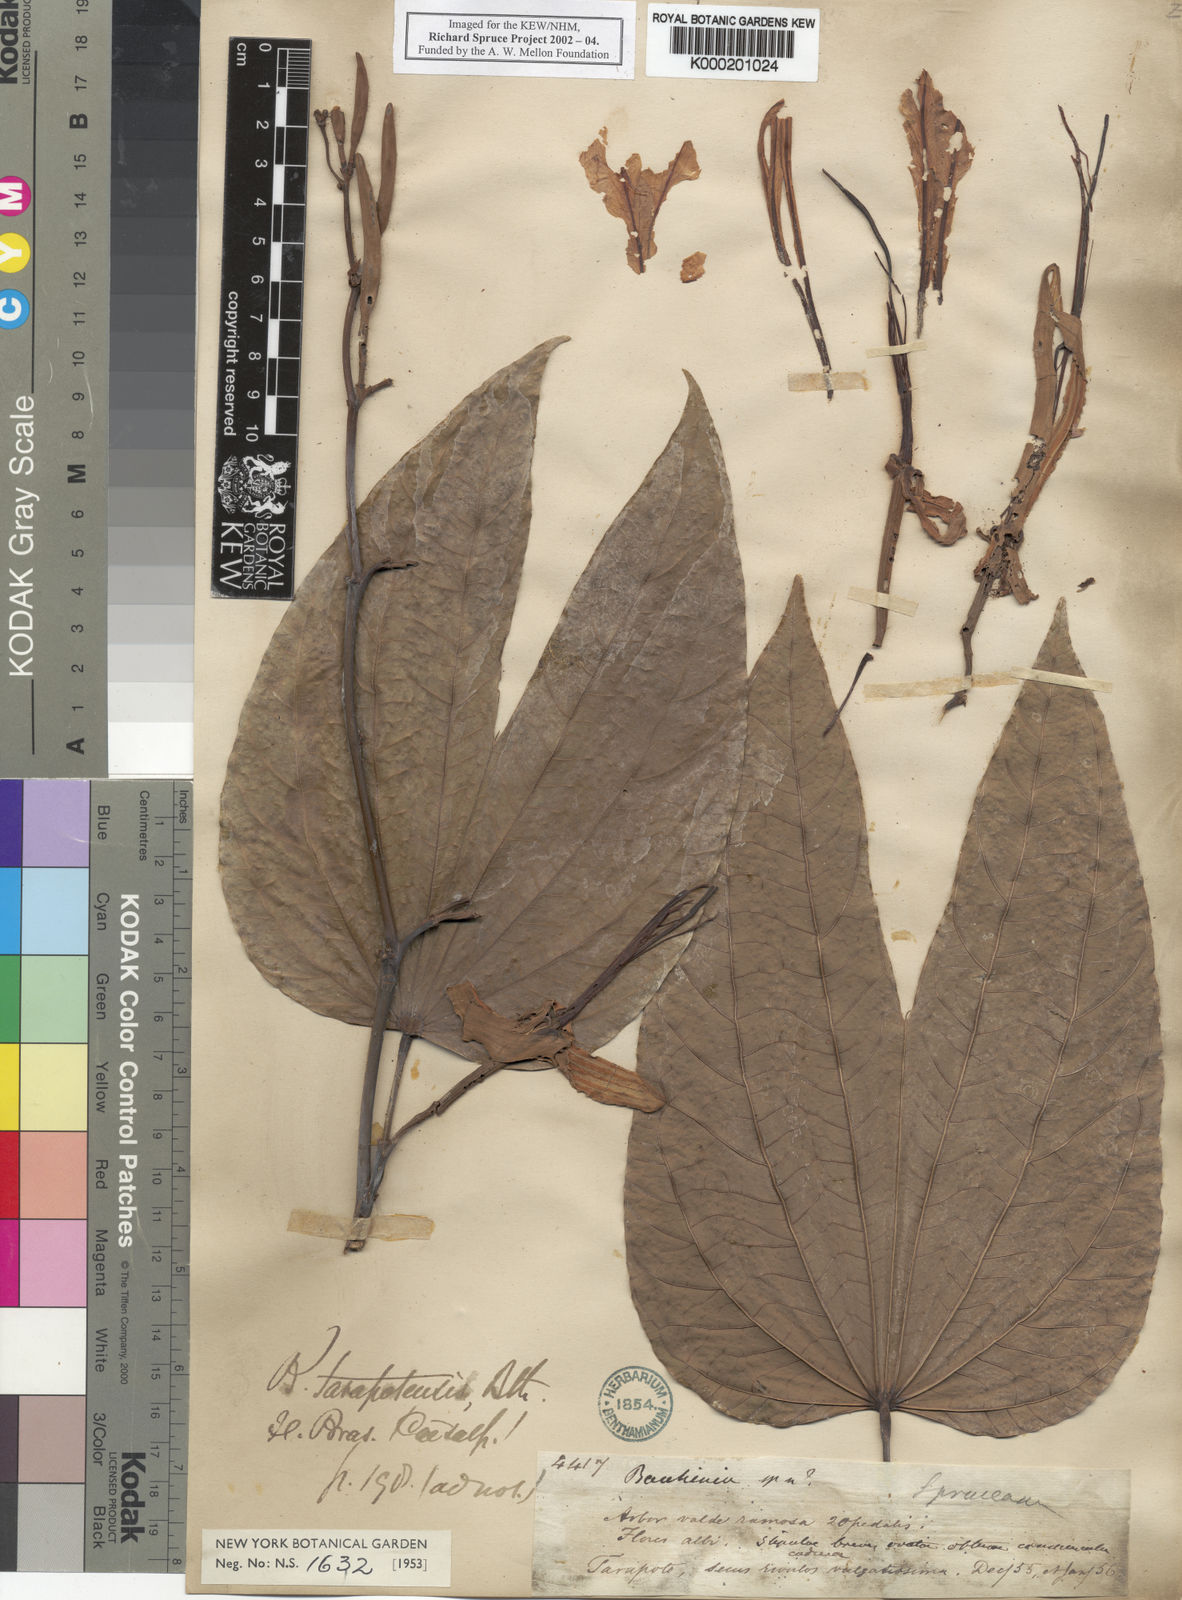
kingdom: Plantae
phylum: Tracheophyta
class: Magnoliopsida
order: Fabales
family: Fabaceae
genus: Bauhinia
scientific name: Bauhinia tarapotensis
